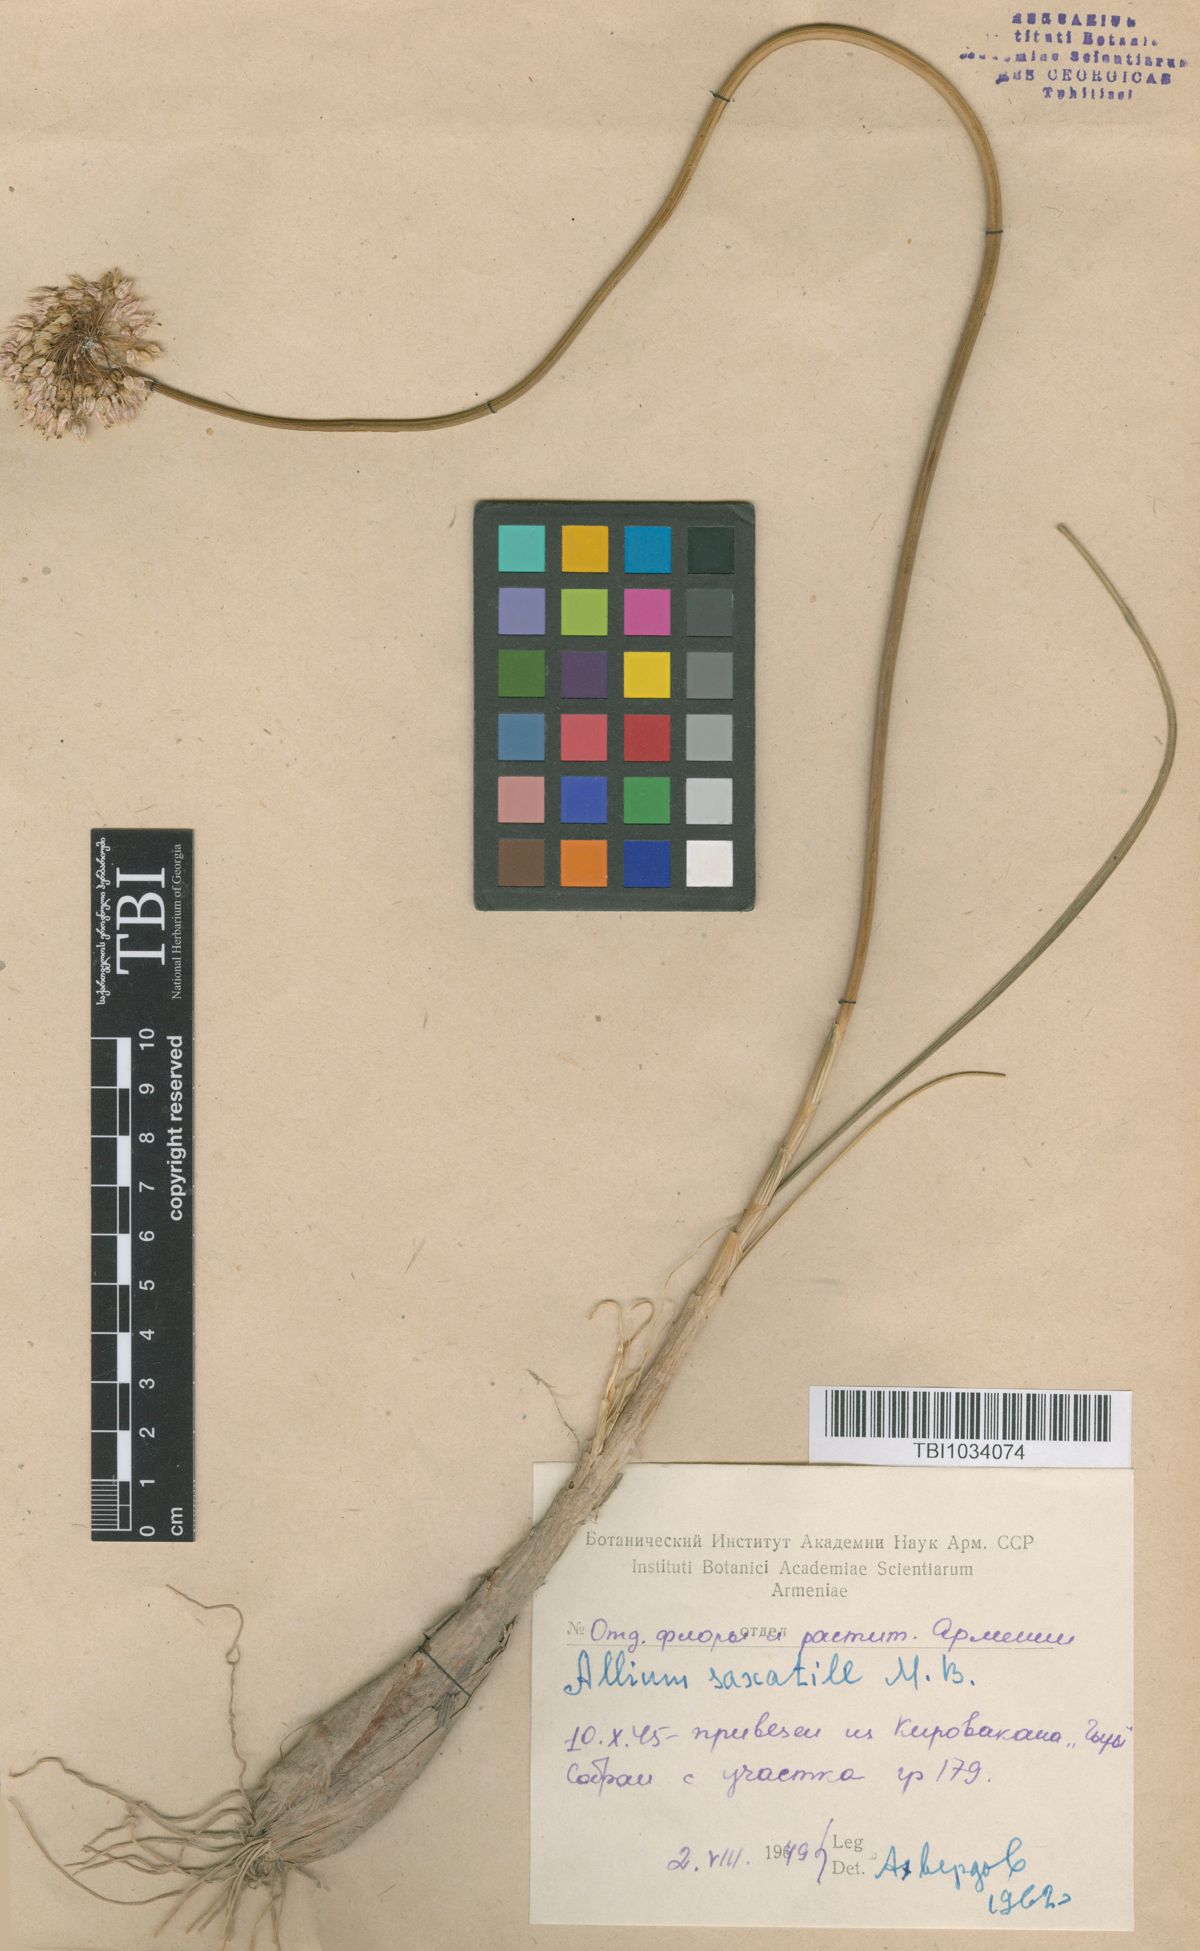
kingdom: Plantae
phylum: Tracheophyta
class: Liliopsida
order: Asparagales
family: Amaryllidaceae
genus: Allium
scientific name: Allium saxatile
